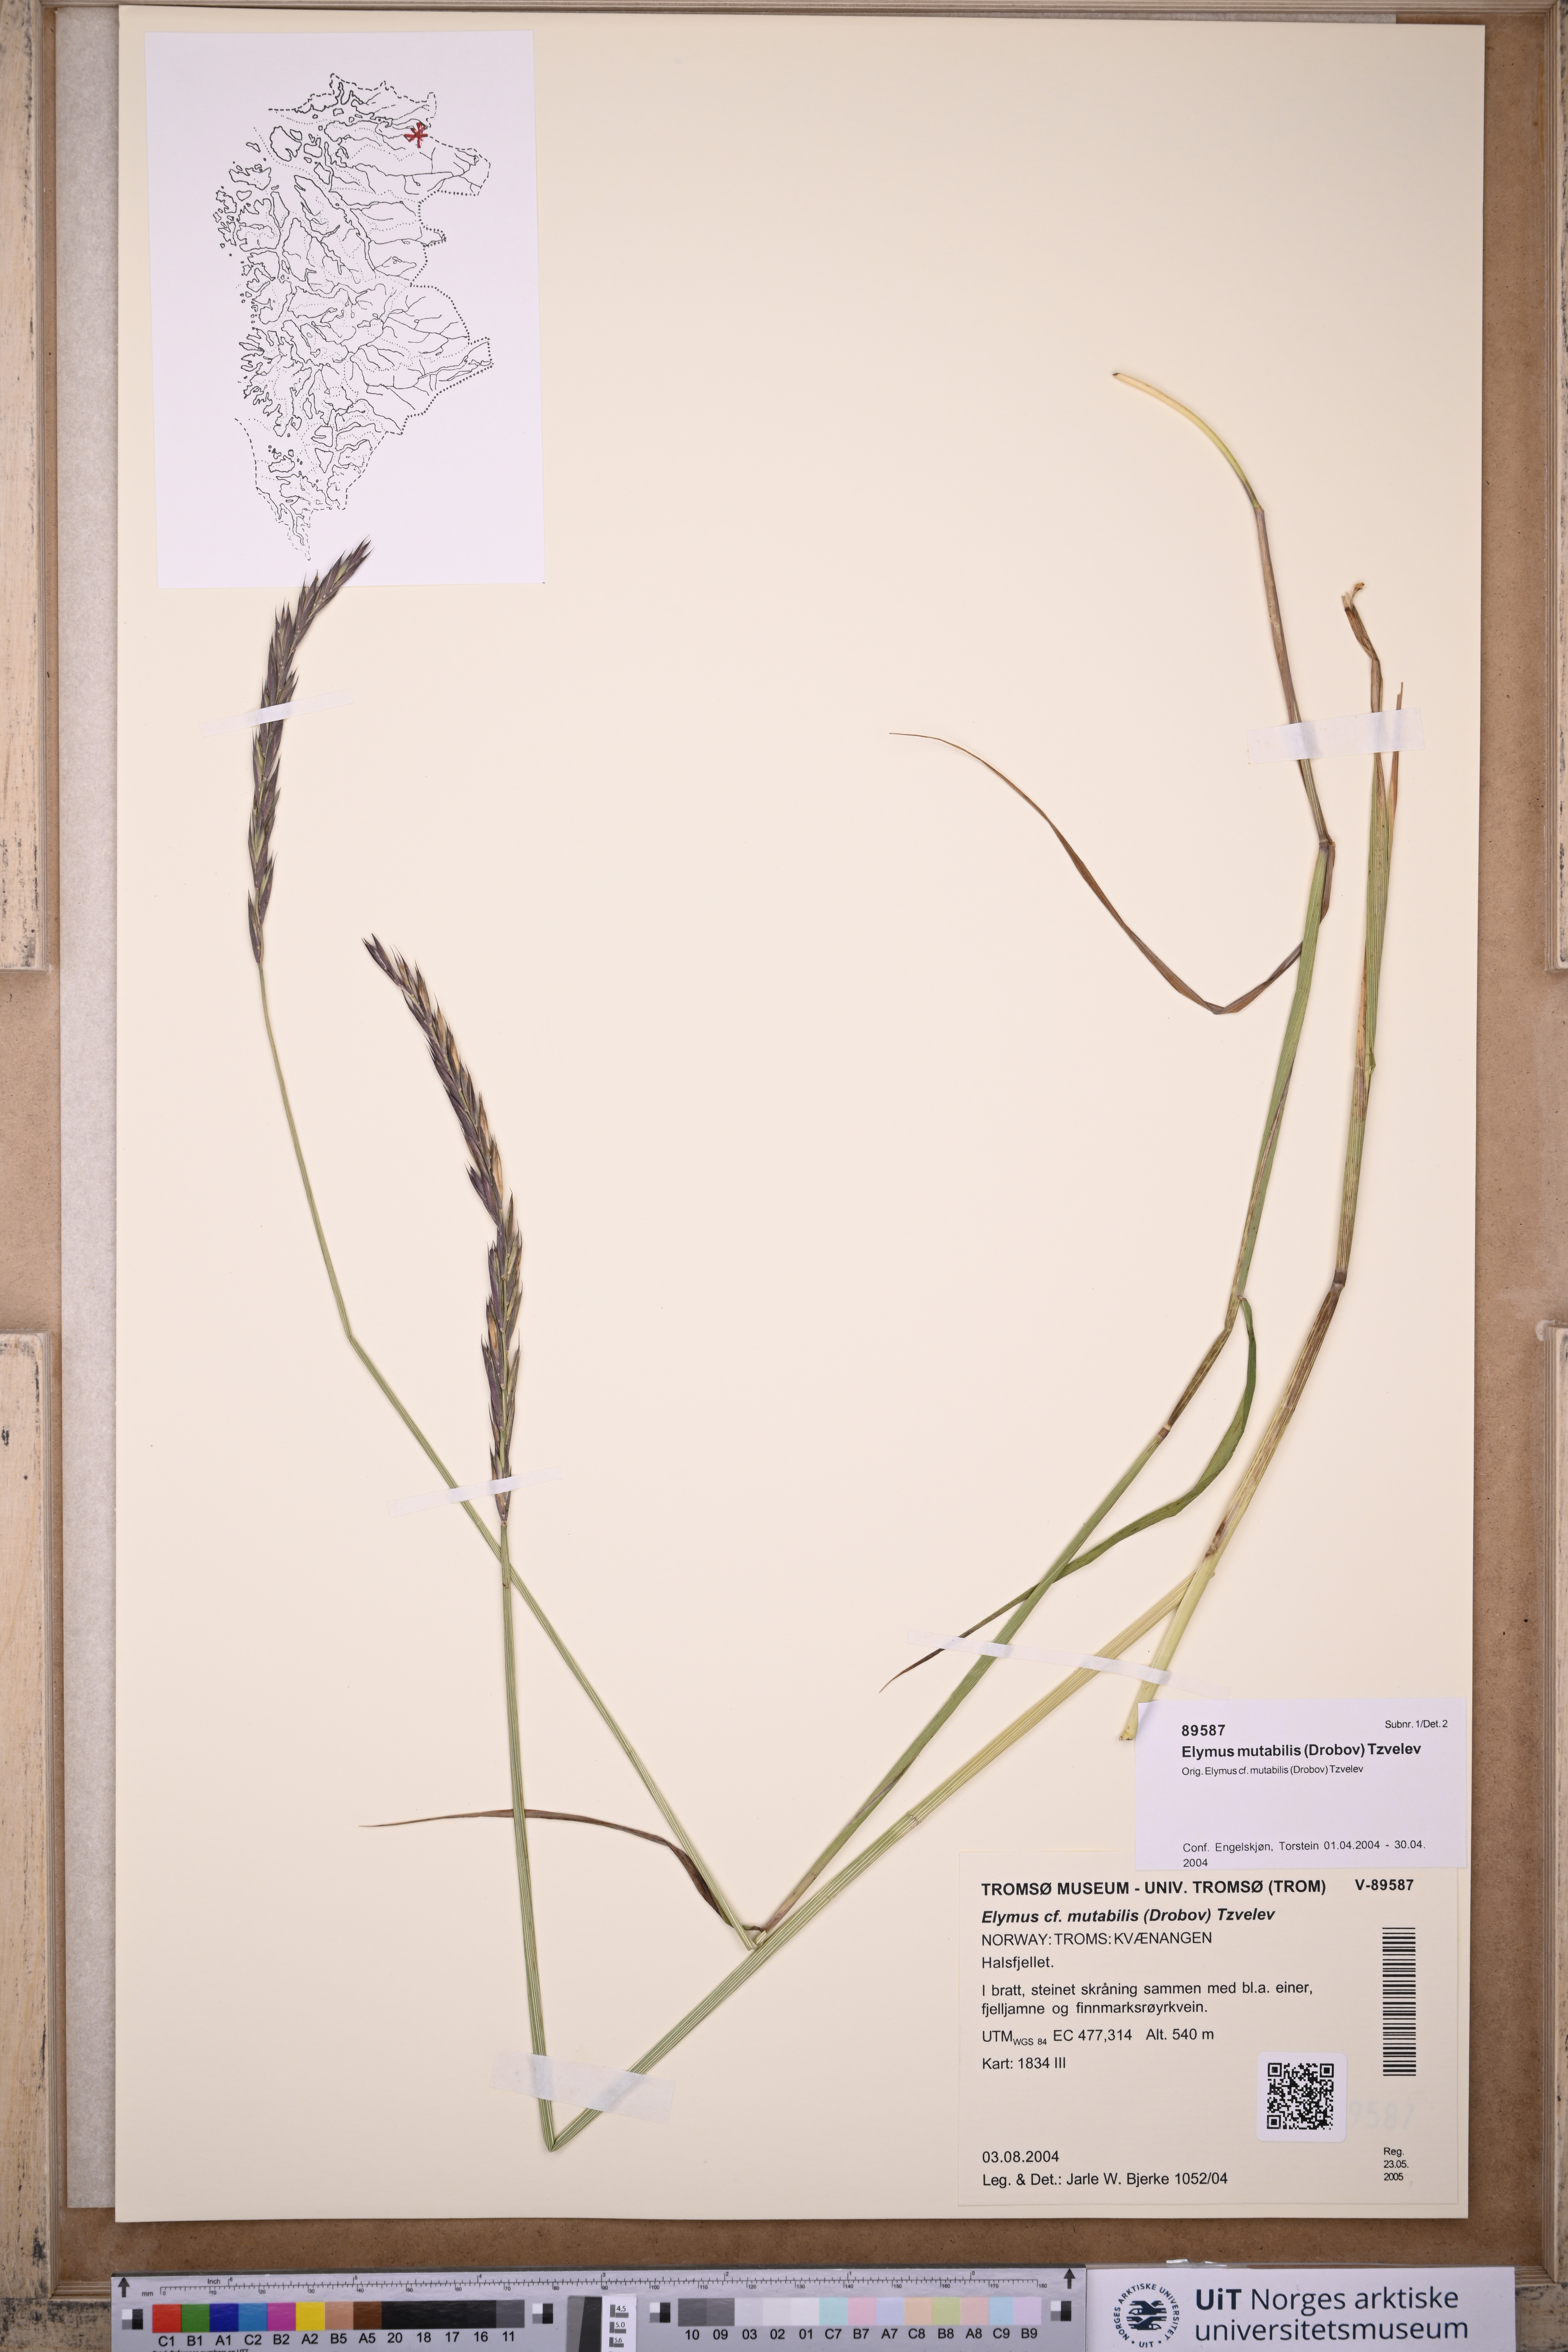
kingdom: Plantae
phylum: Tracheophyta
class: Liliopsida
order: Poales
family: Poaceae
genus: Elymus
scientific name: Elymus mutabilis
